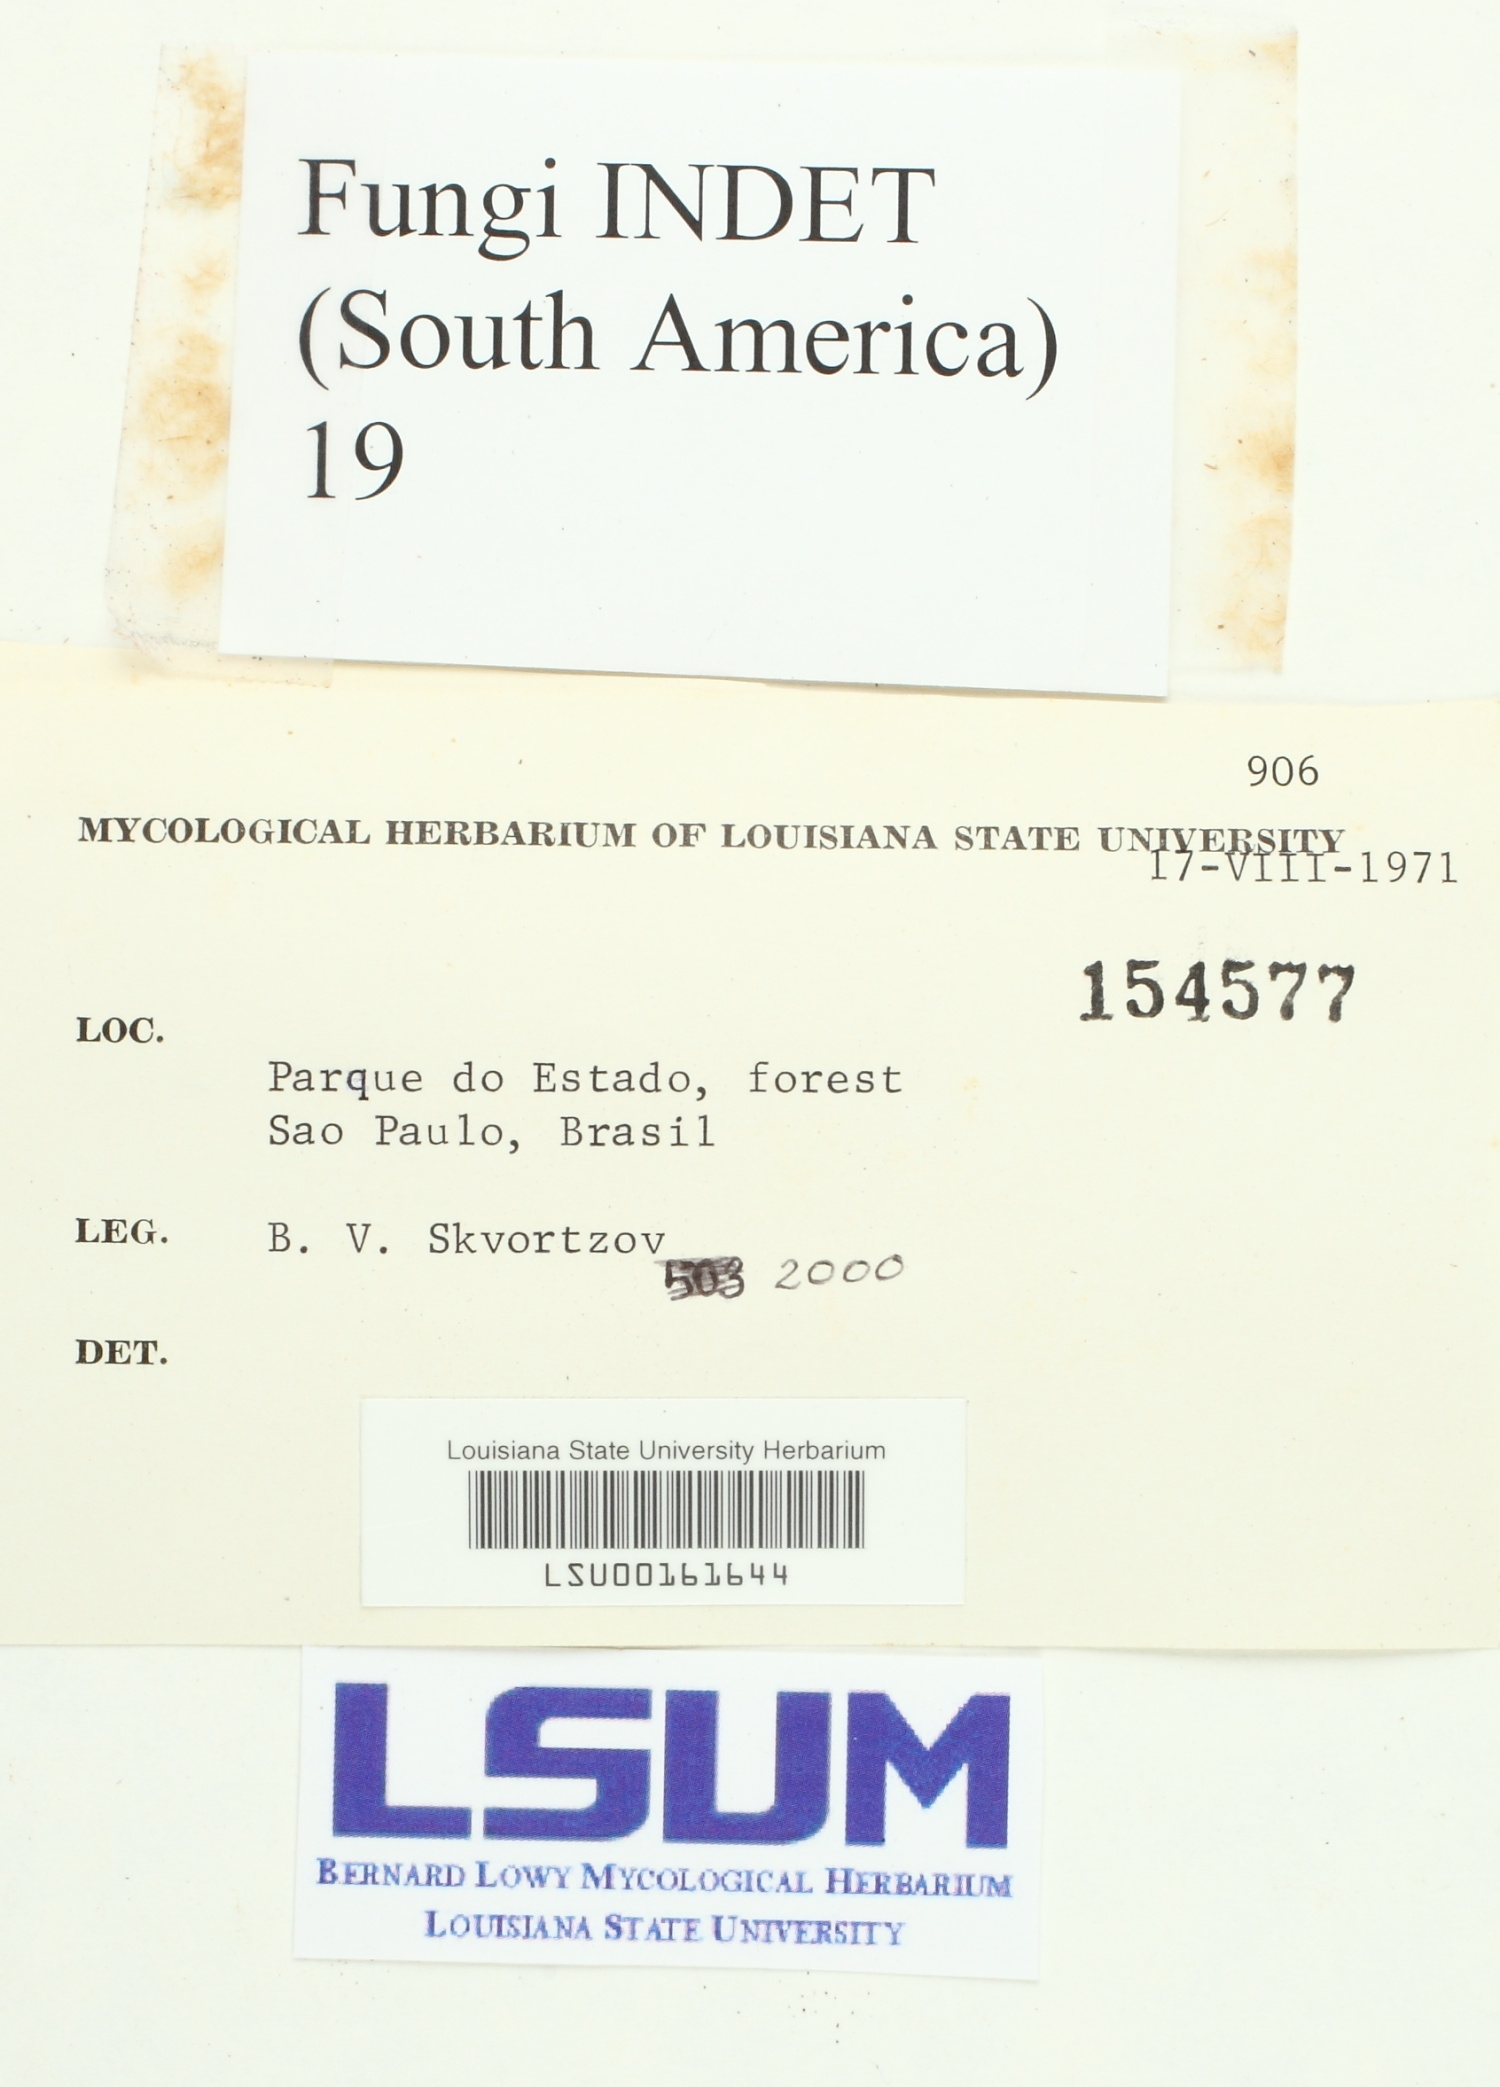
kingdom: Fungi
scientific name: Fungi
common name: Fungi
